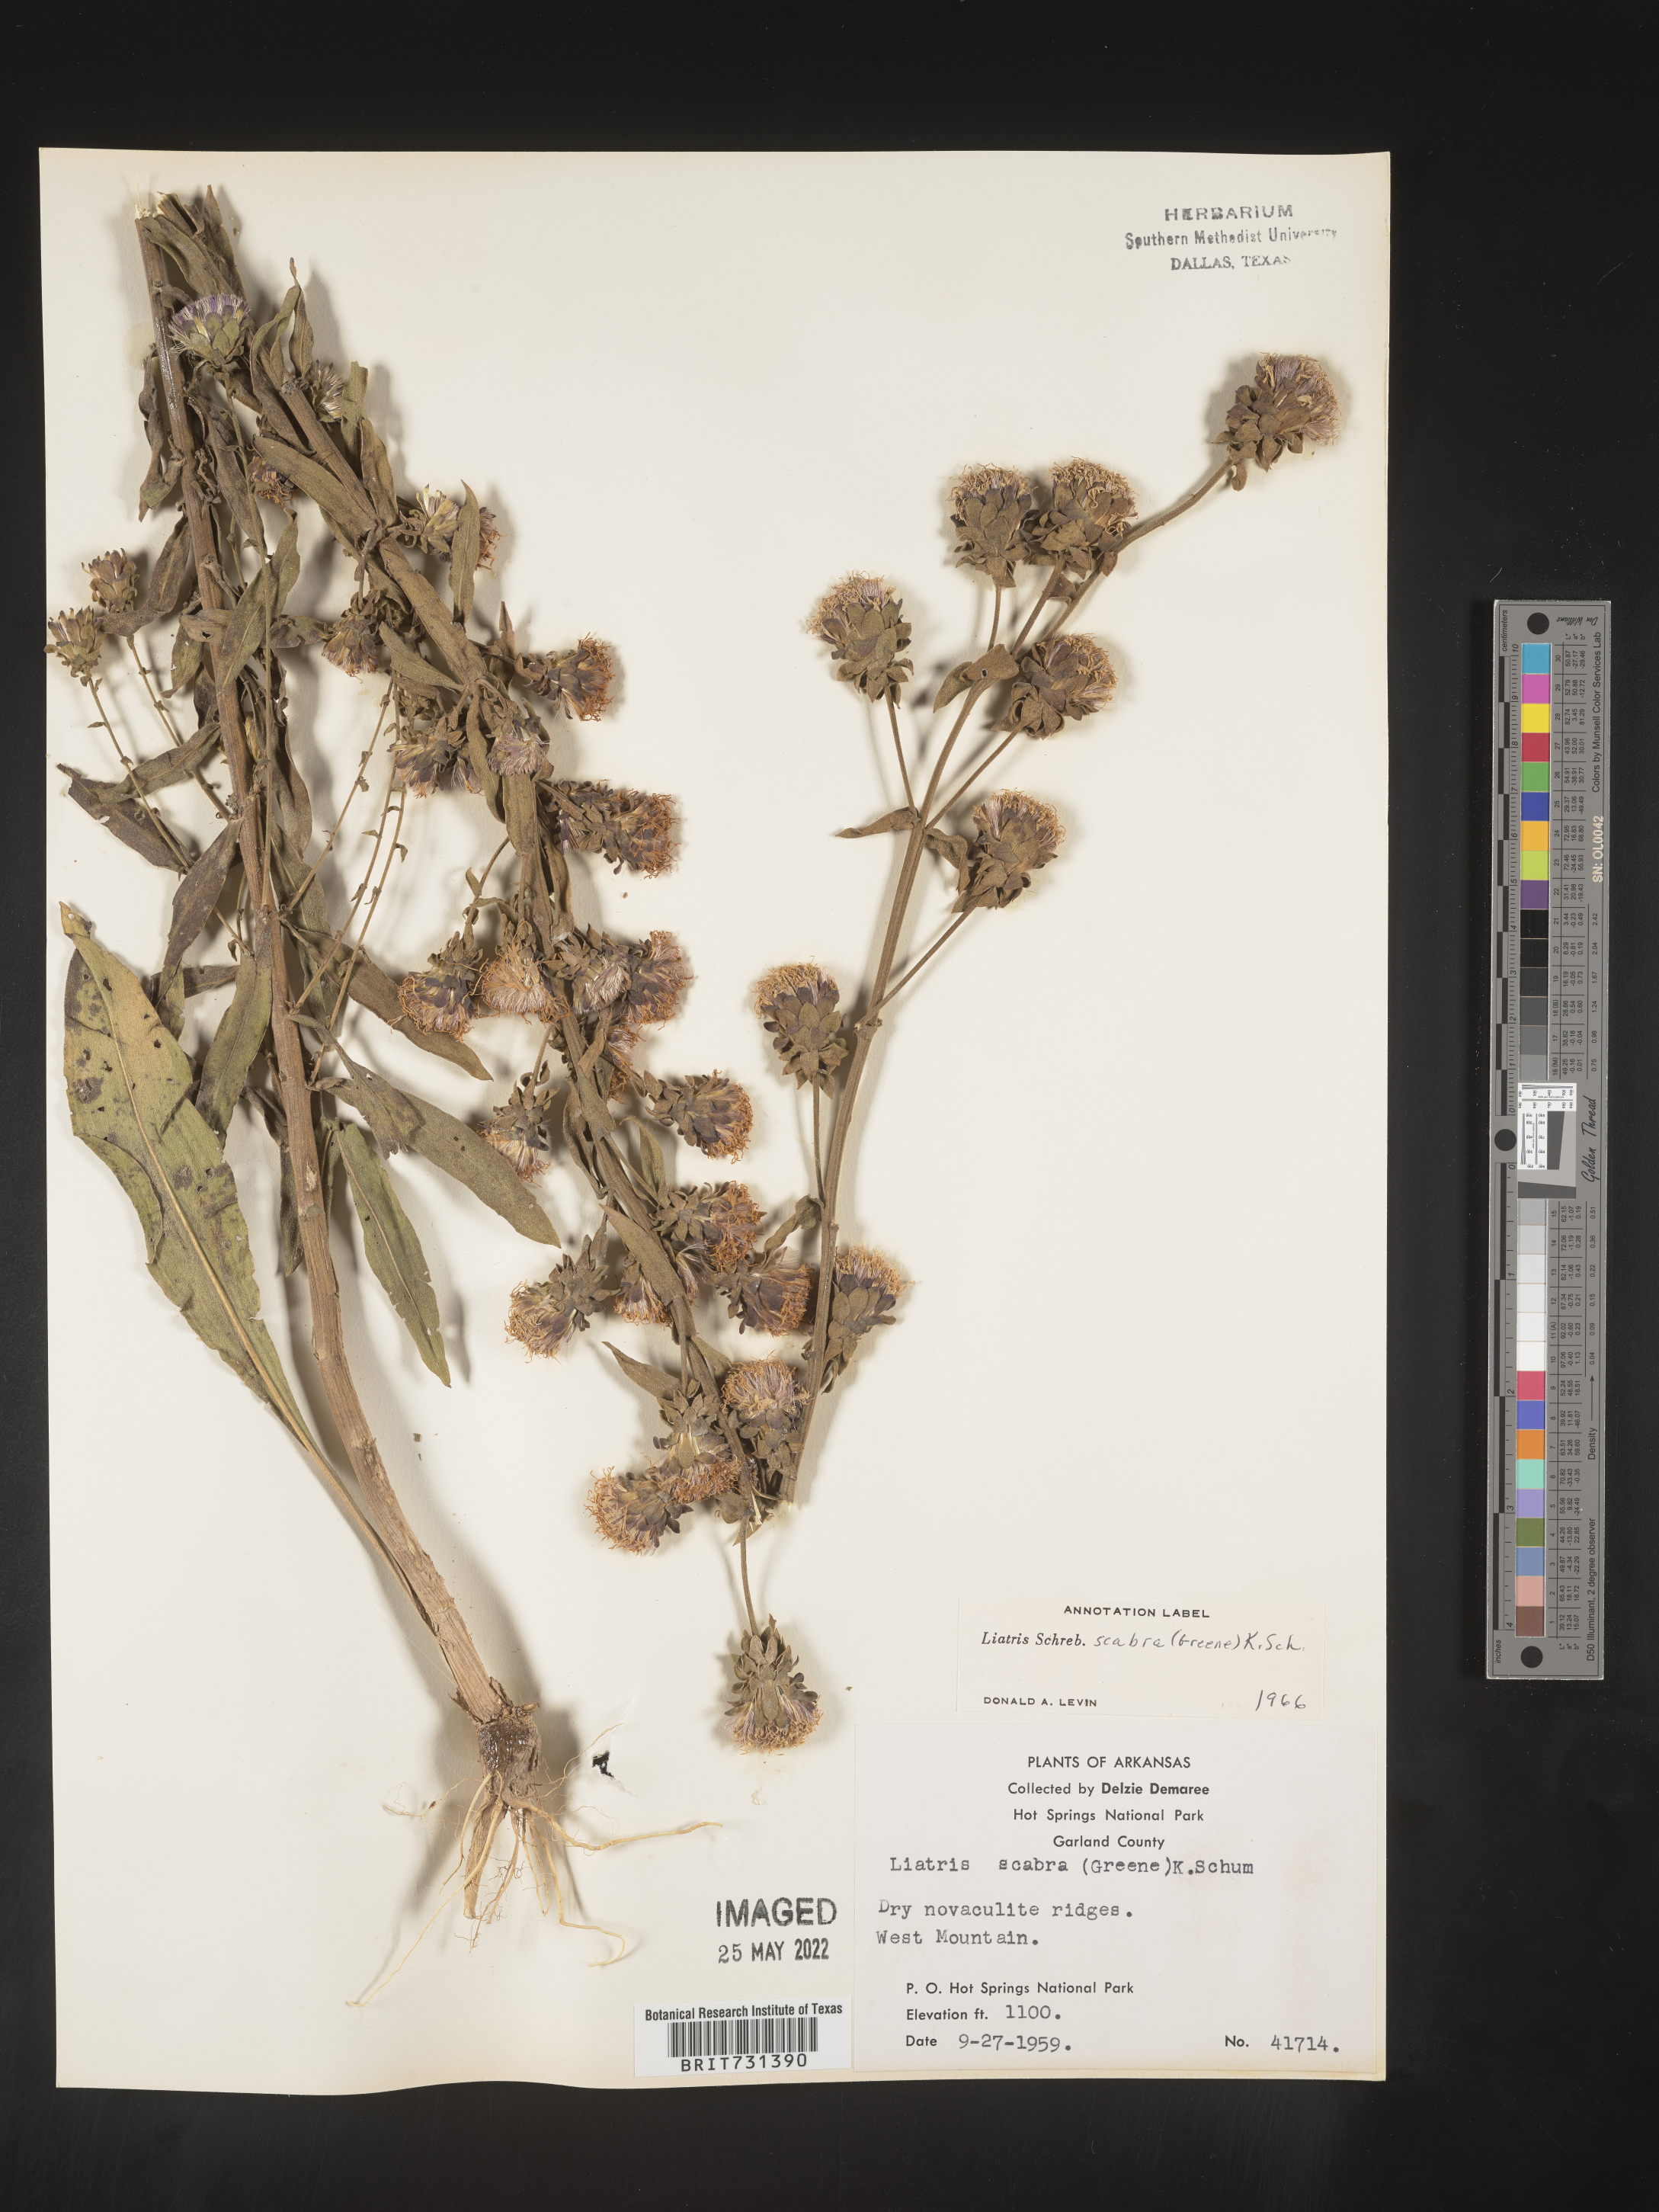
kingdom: Plantae
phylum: Tracheophyta
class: Magnoliopsida
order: Asterales
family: Asteraceae
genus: Liatris
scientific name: Liatris squarrulosa
